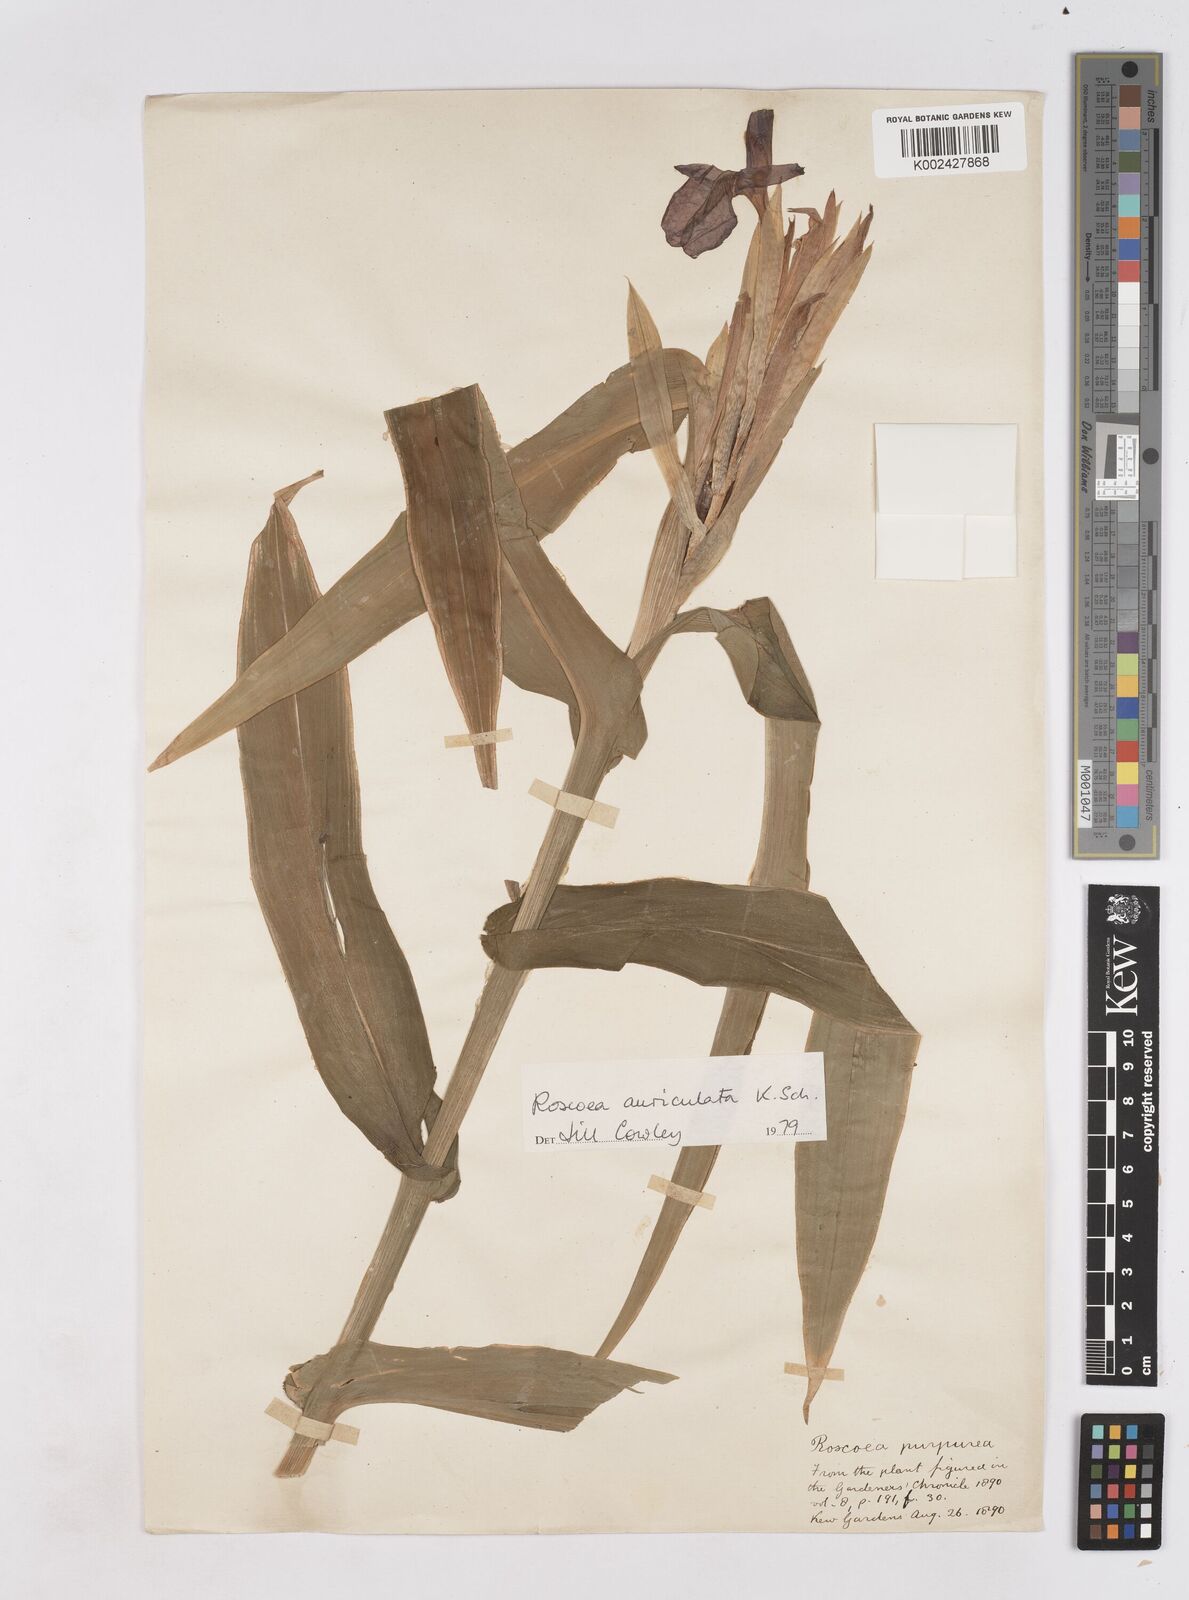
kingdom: Plantae
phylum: Tracheophyta
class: Liliopsida
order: Zingiberales
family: Zingiberaceae
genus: Roscoea
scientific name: Roscoea auriculata
